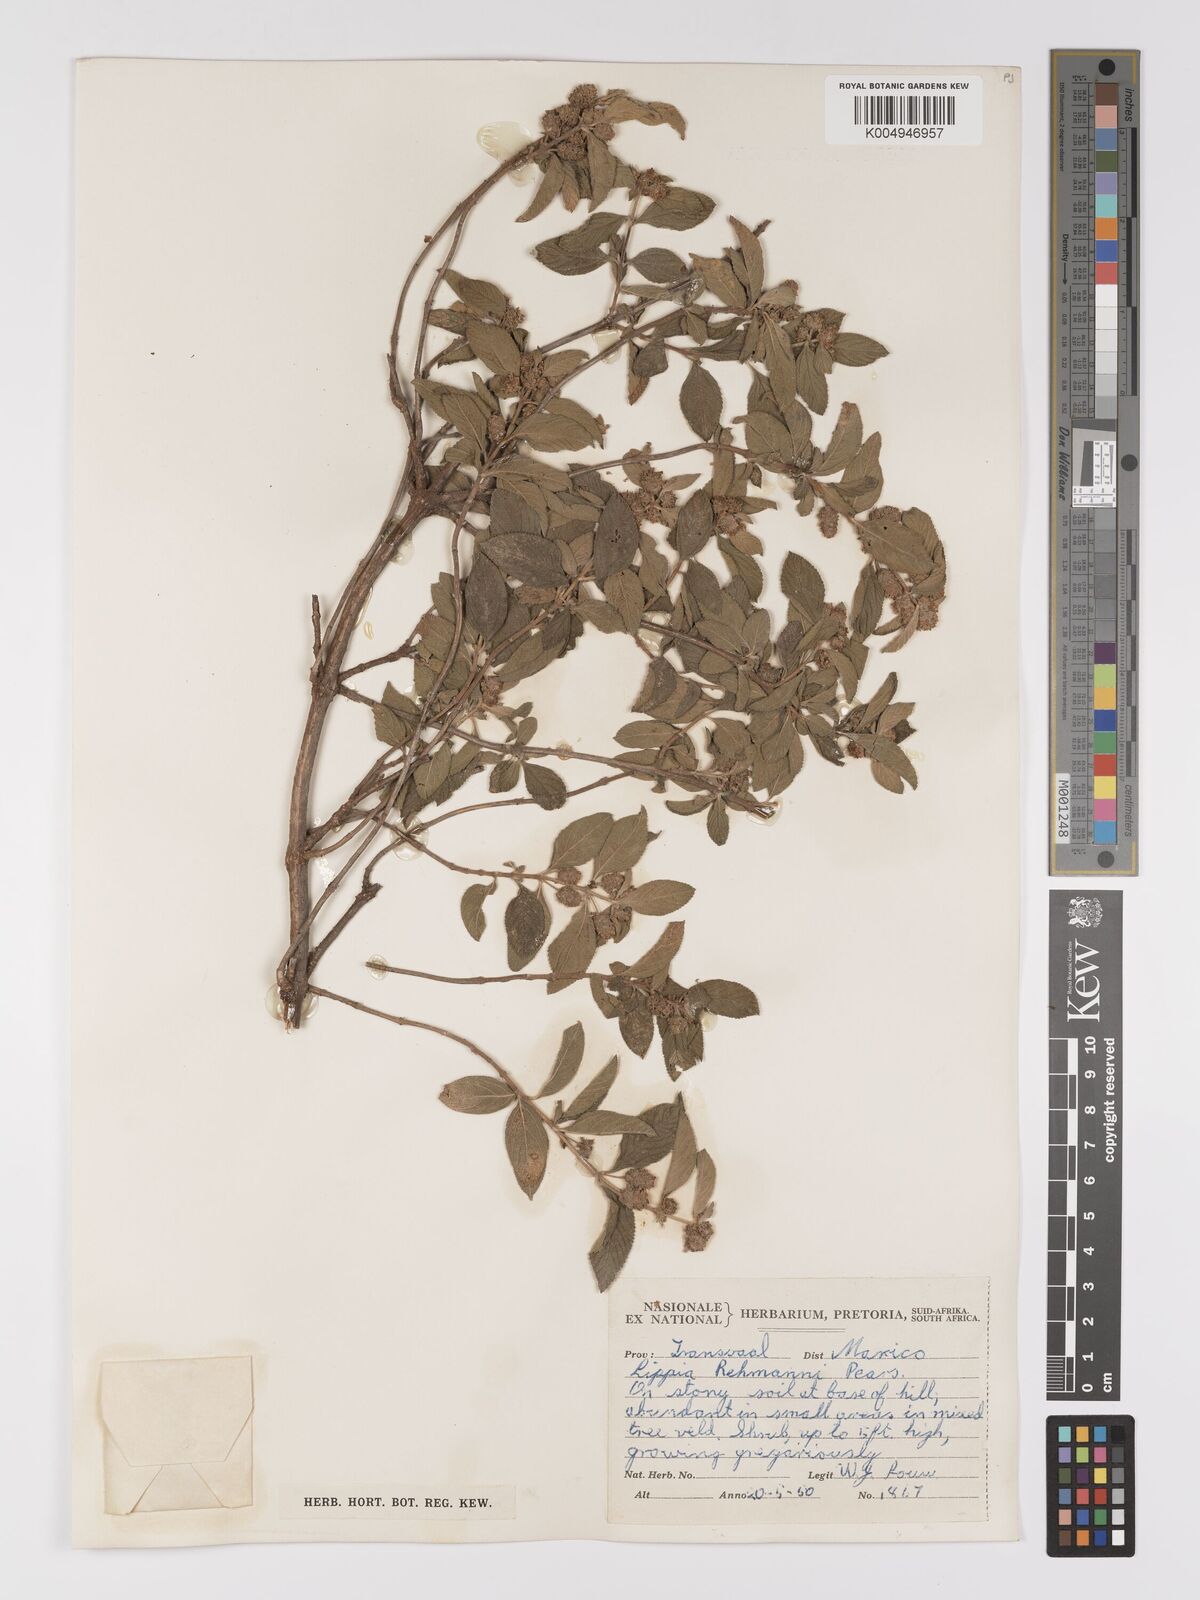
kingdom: Plantae
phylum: Tracheophyta
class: Magnoliopsida
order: Lamiales
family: Verbenaceae
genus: Lippia
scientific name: Lippia javanica
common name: Lemonbush
